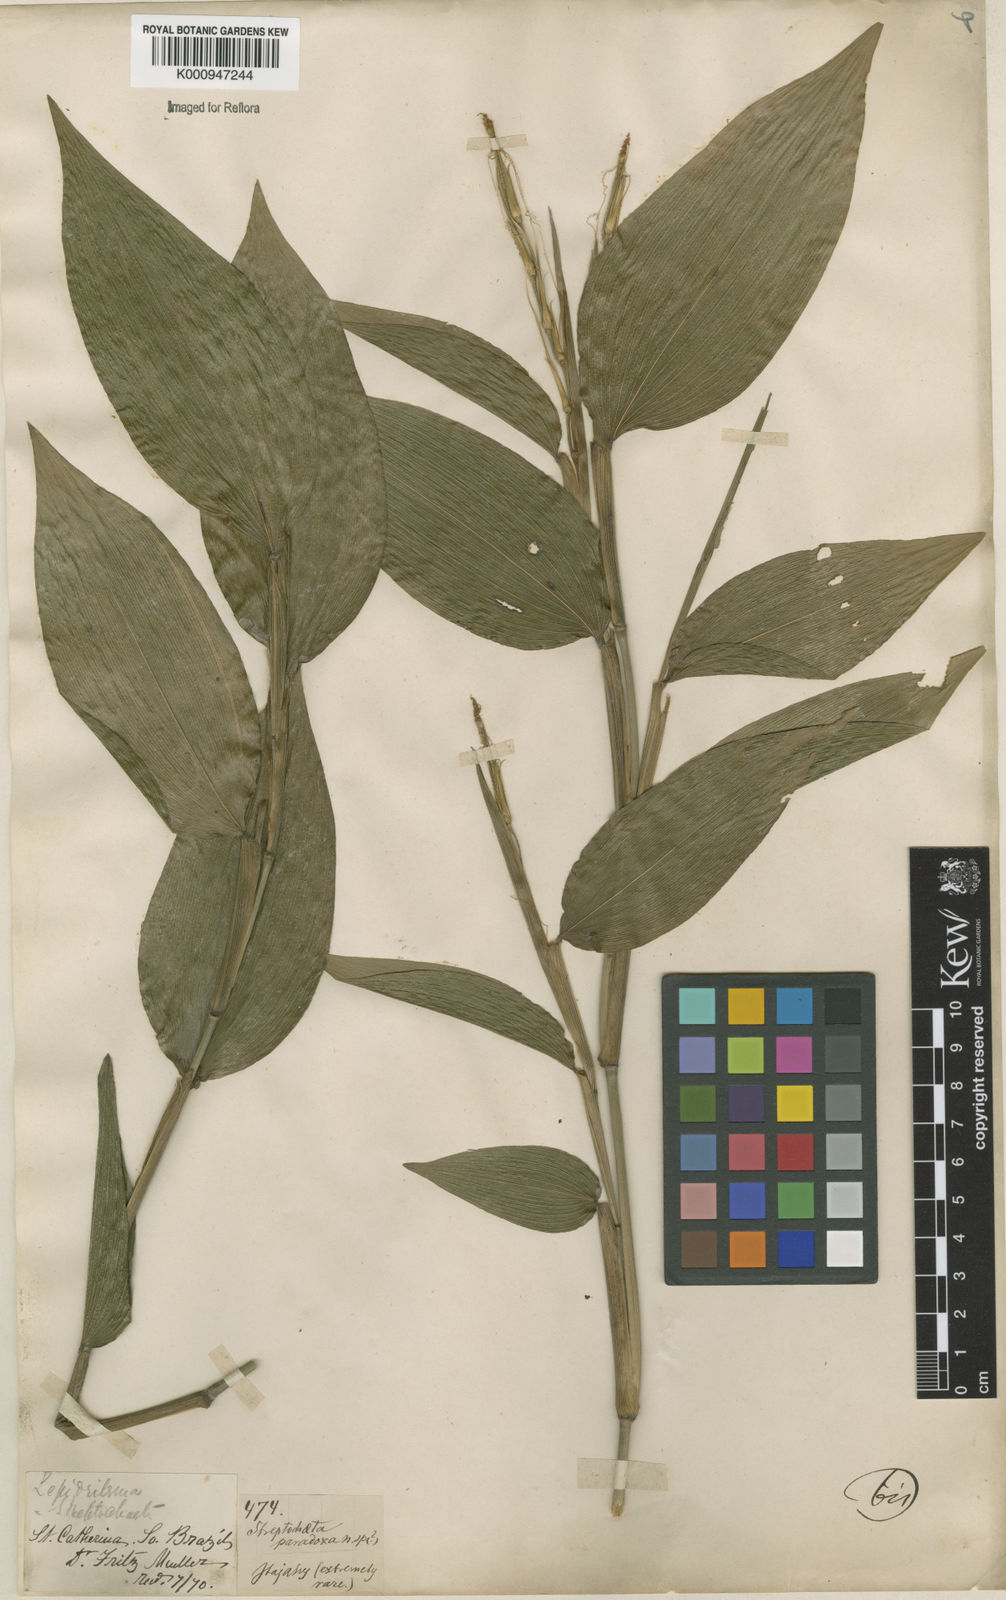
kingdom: Plantae
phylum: Tracheophyta
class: Liliopsida
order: Poales
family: Poaceae
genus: Streptochaeta
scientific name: Streptochaeta spicata
